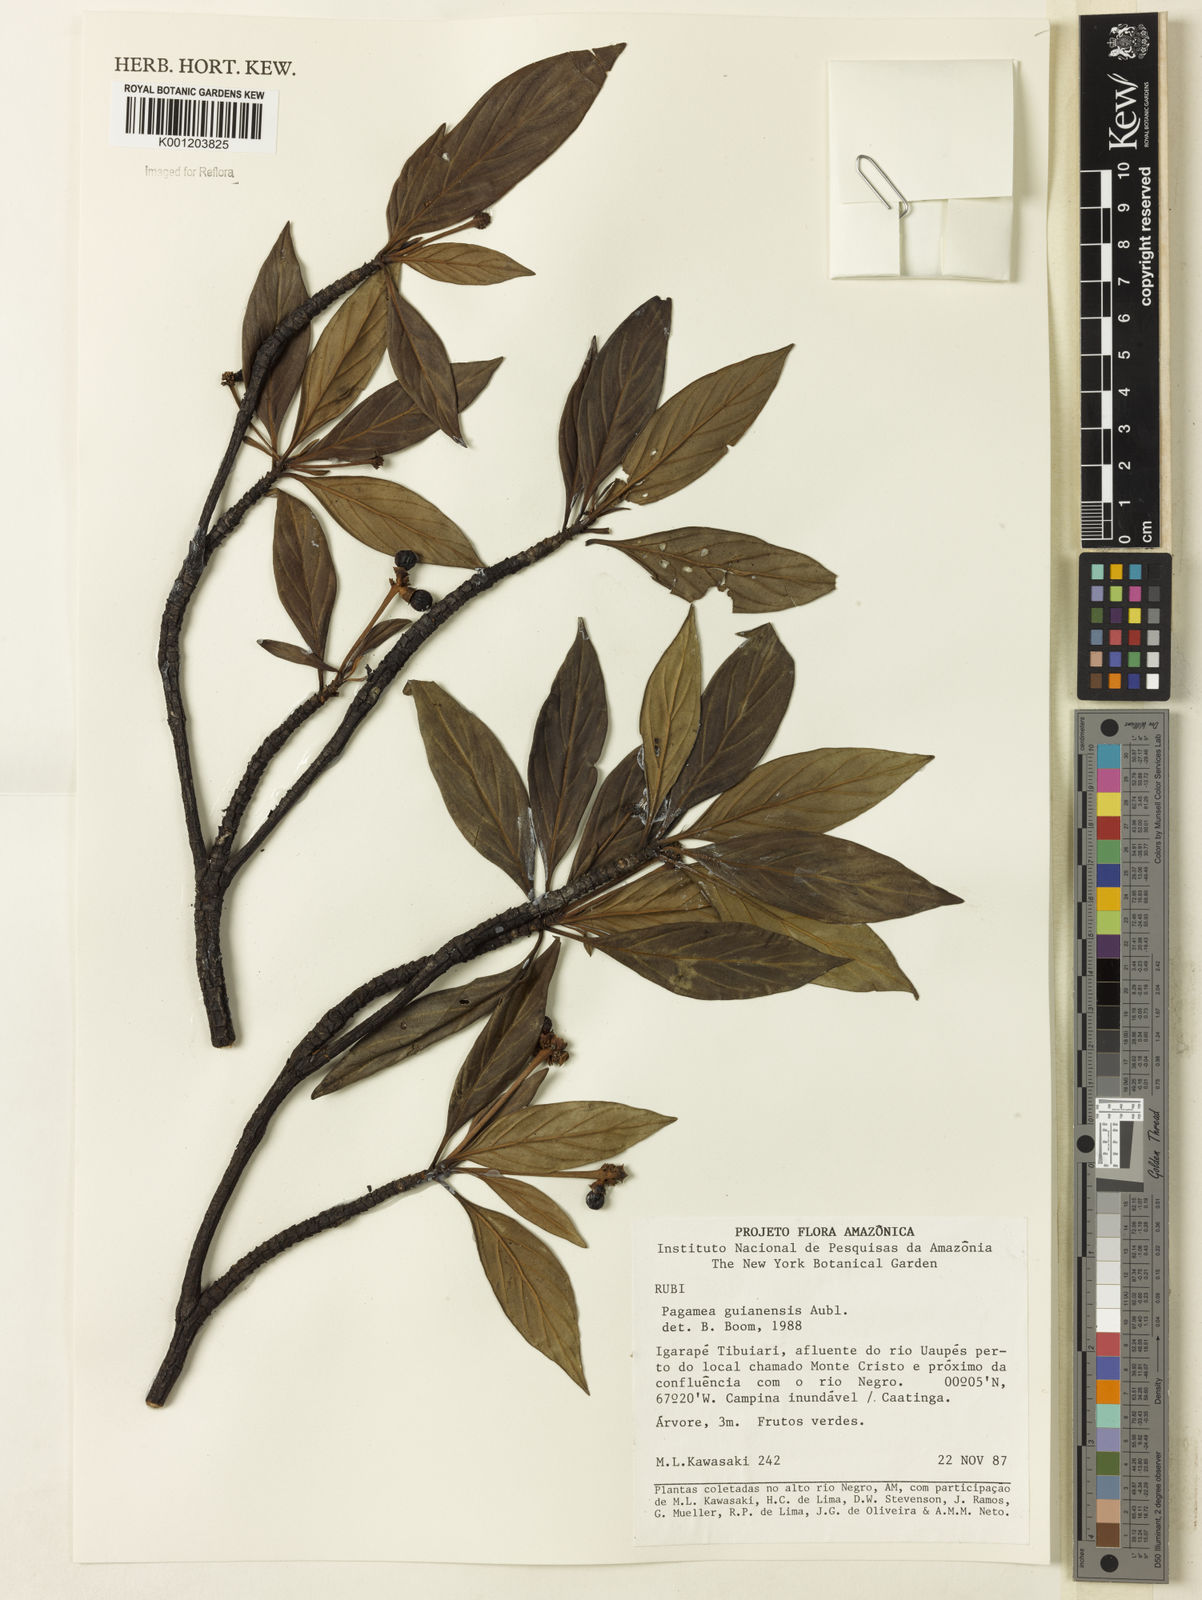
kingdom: Plantae
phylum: Tracheophyta
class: Magnoliopsida
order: Gentianales
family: Rubiaceae
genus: Pagamea
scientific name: Pagamea guianensis
